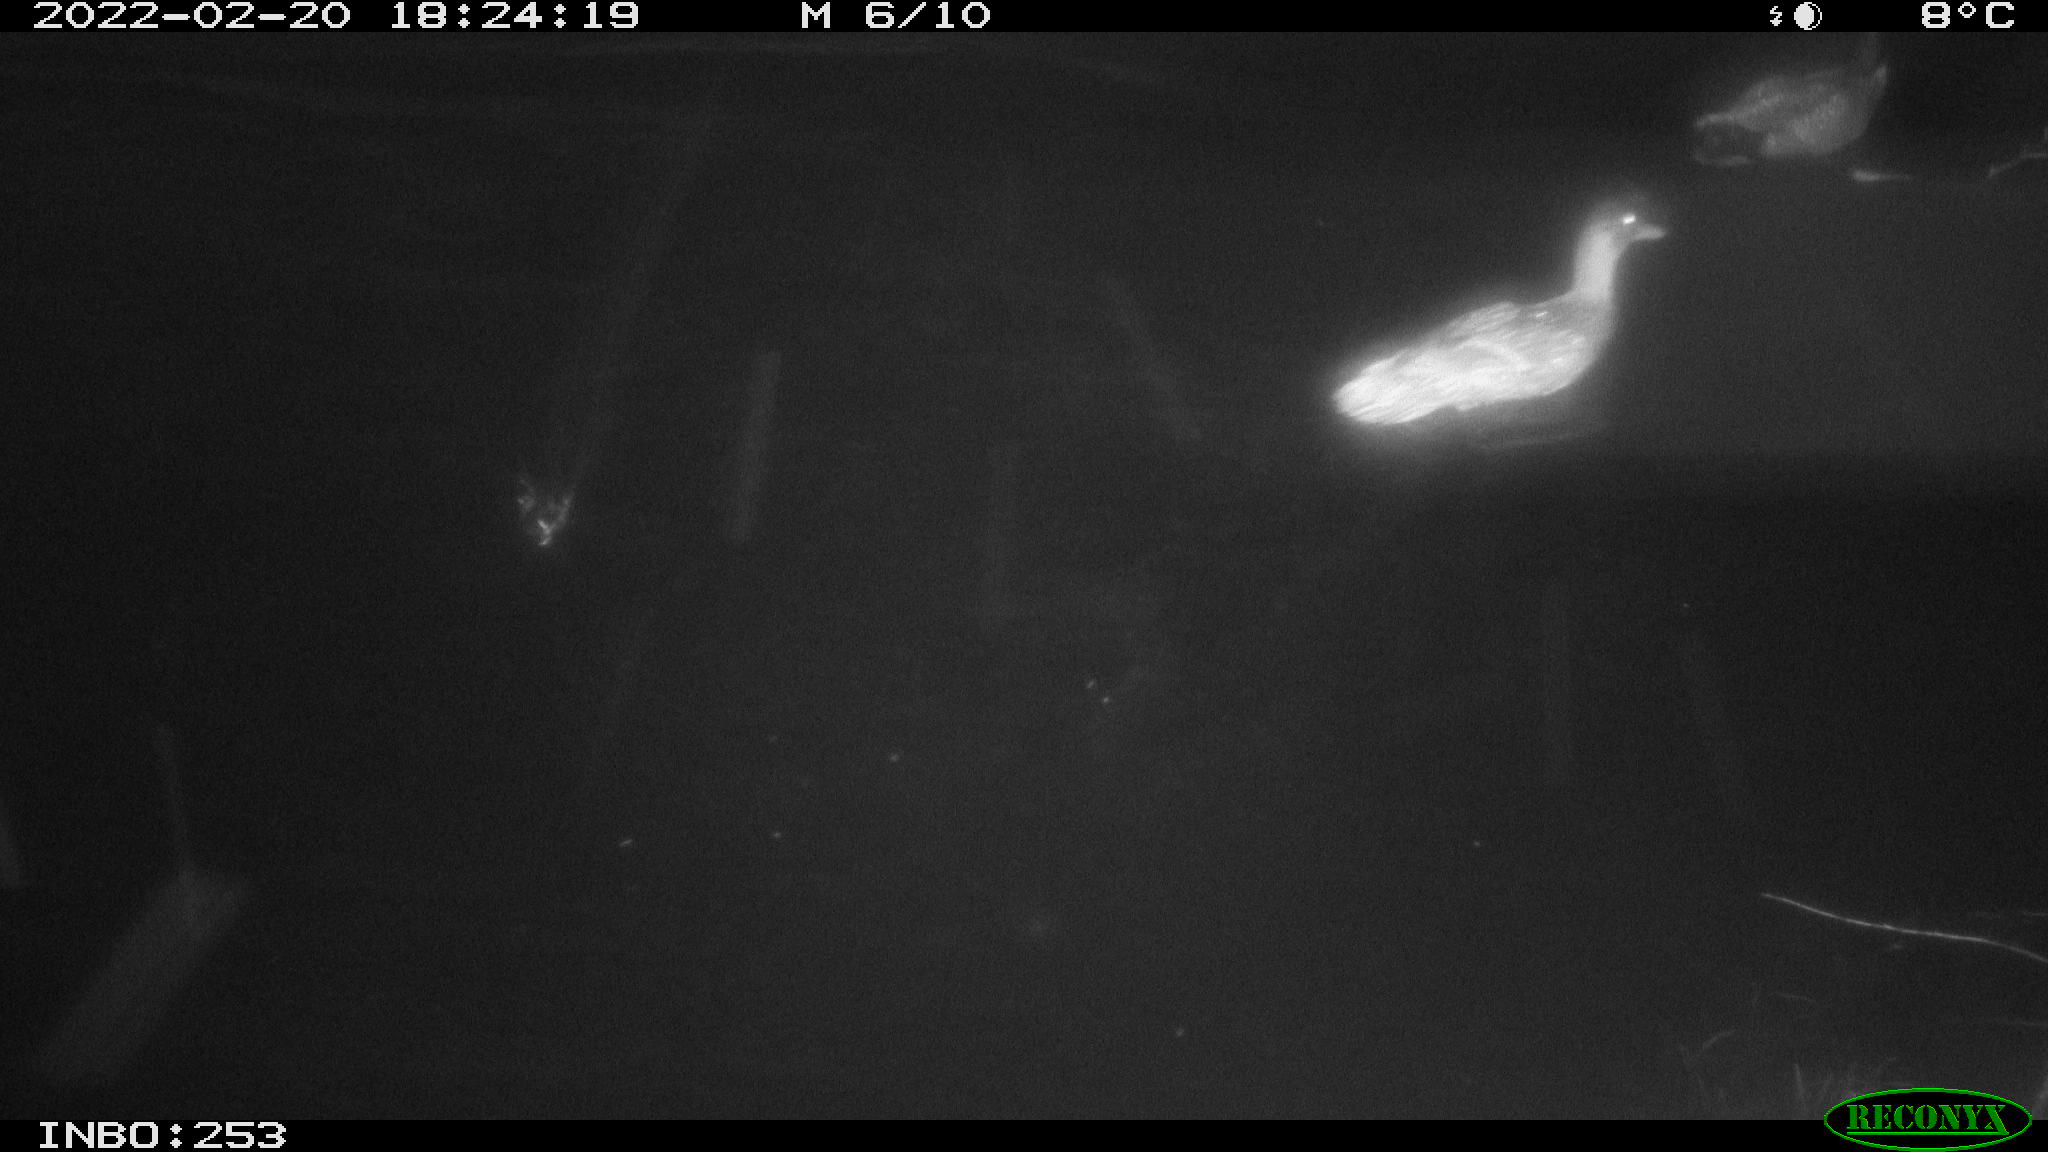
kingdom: Animalia
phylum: Chordata
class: Aves
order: Anseriformes
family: Anatidae
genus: Anas
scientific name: Anas platyrhynchos
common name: Mallard
